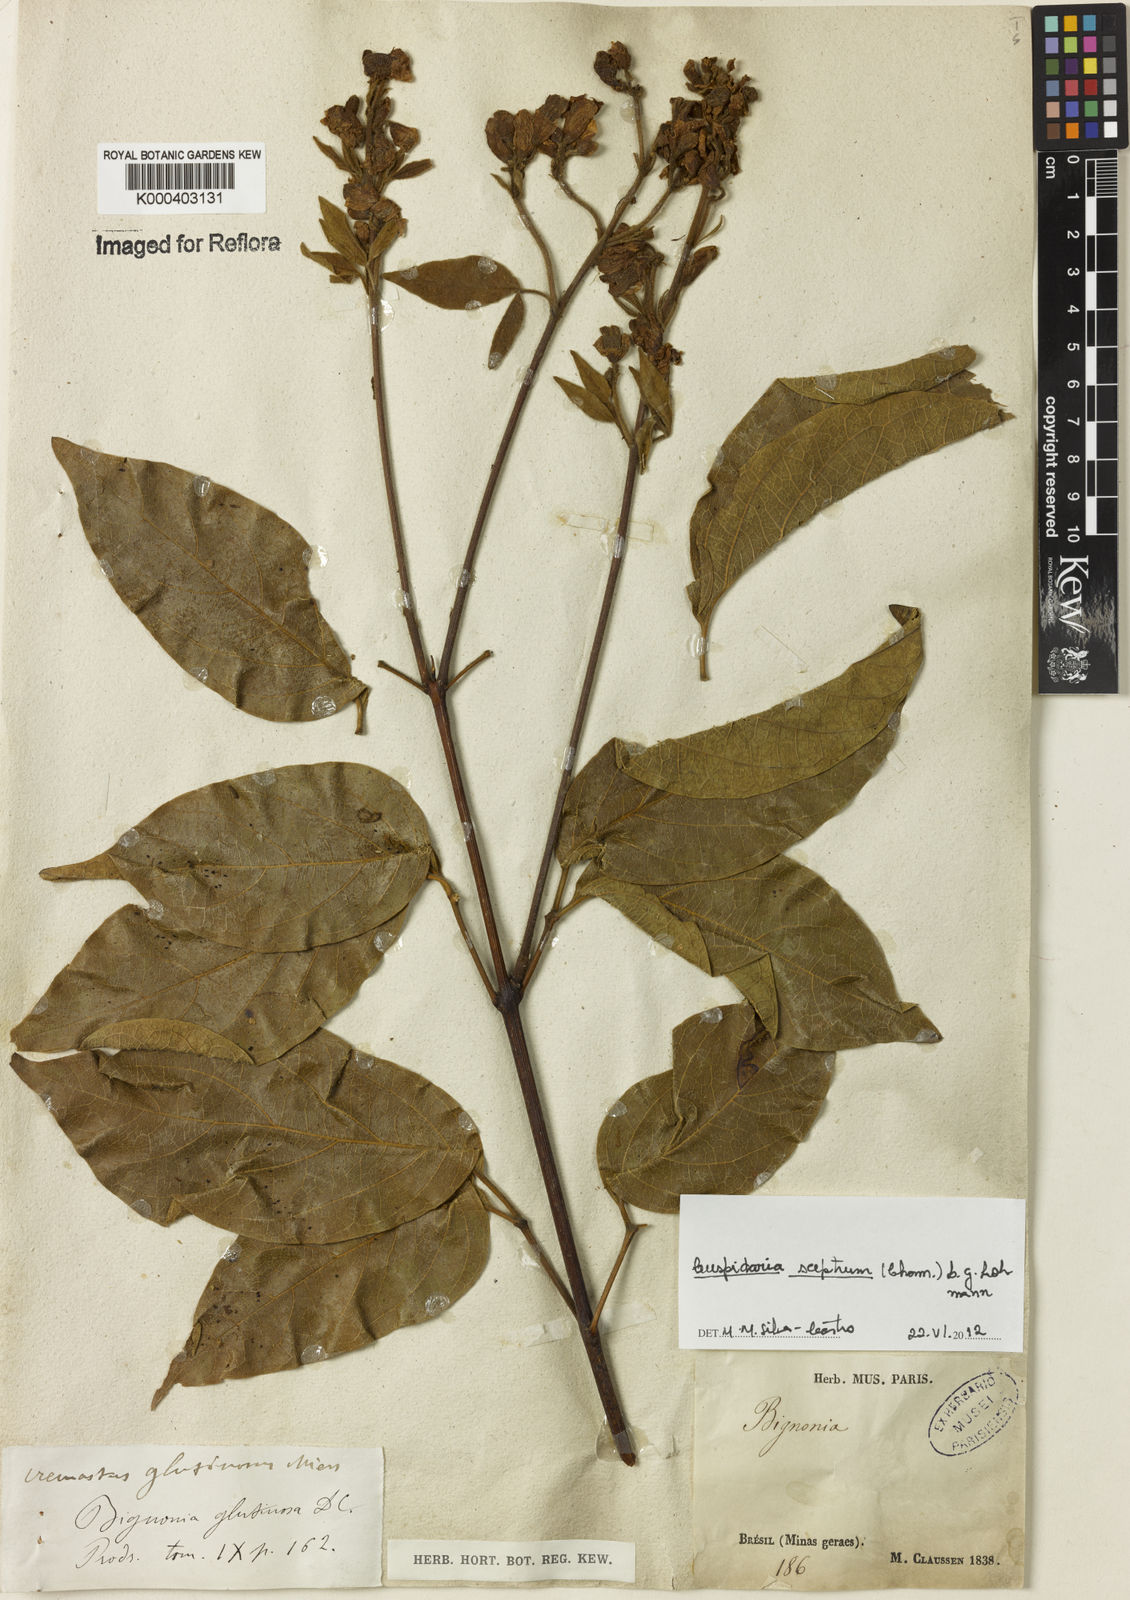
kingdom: Plantae
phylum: Tracheophyta
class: Magnoliopsida
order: Lamiales
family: Bignoniaceae
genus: Cuspidaria
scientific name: Cuspidaria sceptrum
